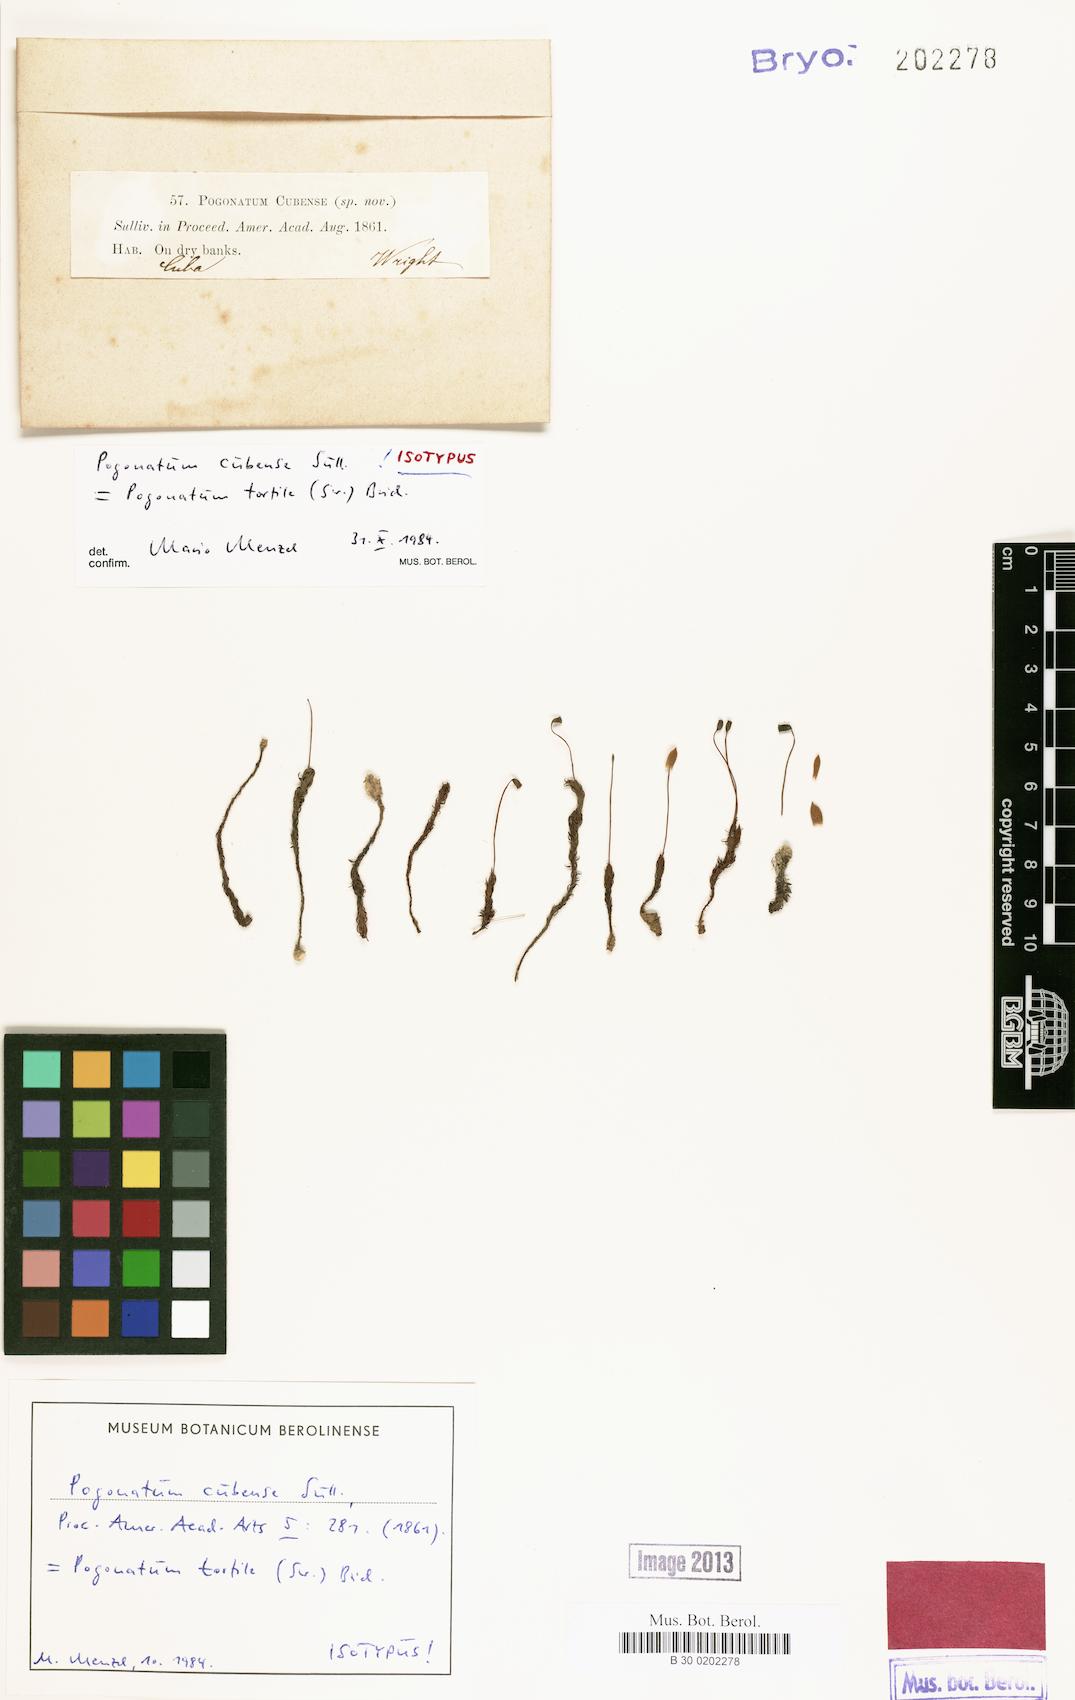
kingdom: Plantae
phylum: Bryophyta
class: Polytrichopsida
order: Polytrichales
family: Polytrichaceae
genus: Pogonatum
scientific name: Pogonatum tortile
